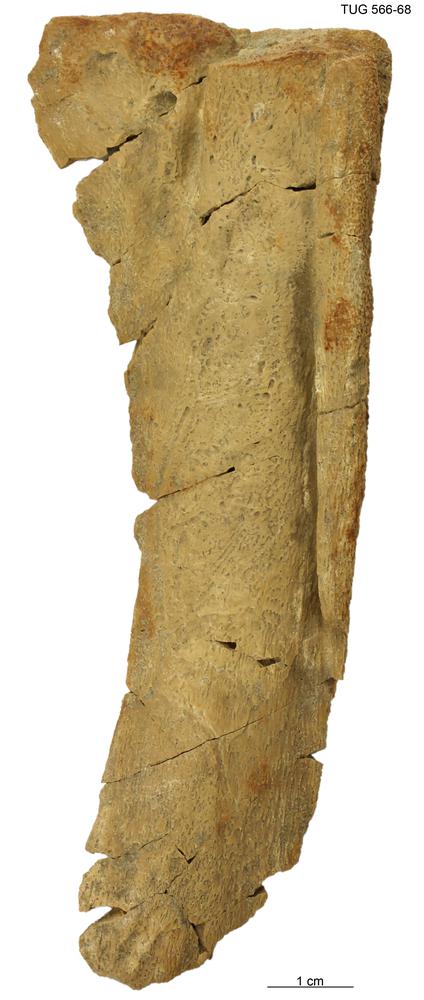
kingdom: Animalia
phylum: Chordata
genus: Homosteus
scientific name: Homosteus sulcatus
